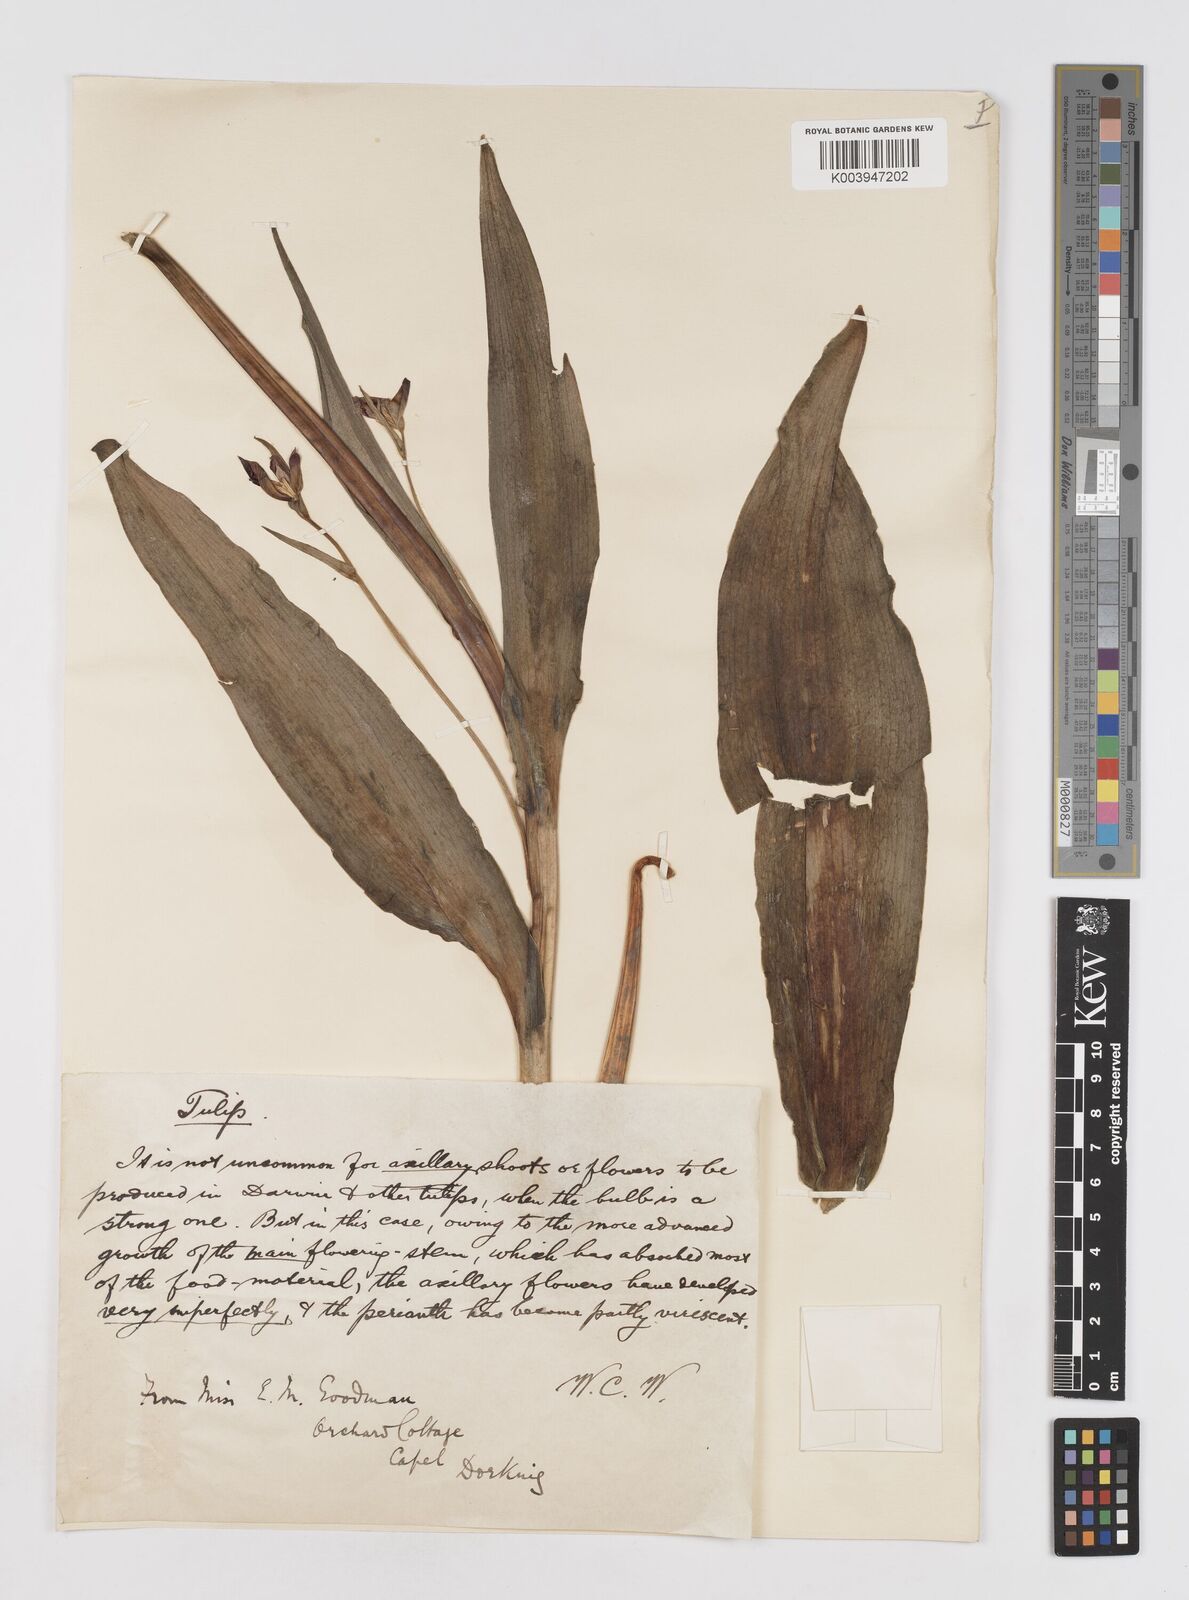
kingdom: Plantae
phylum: Tracheophyta
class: Liliopsida
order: Liliales
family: Liliaceae
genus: Tulipa
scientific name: Tulipa gesneriana
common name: Garden tulip
